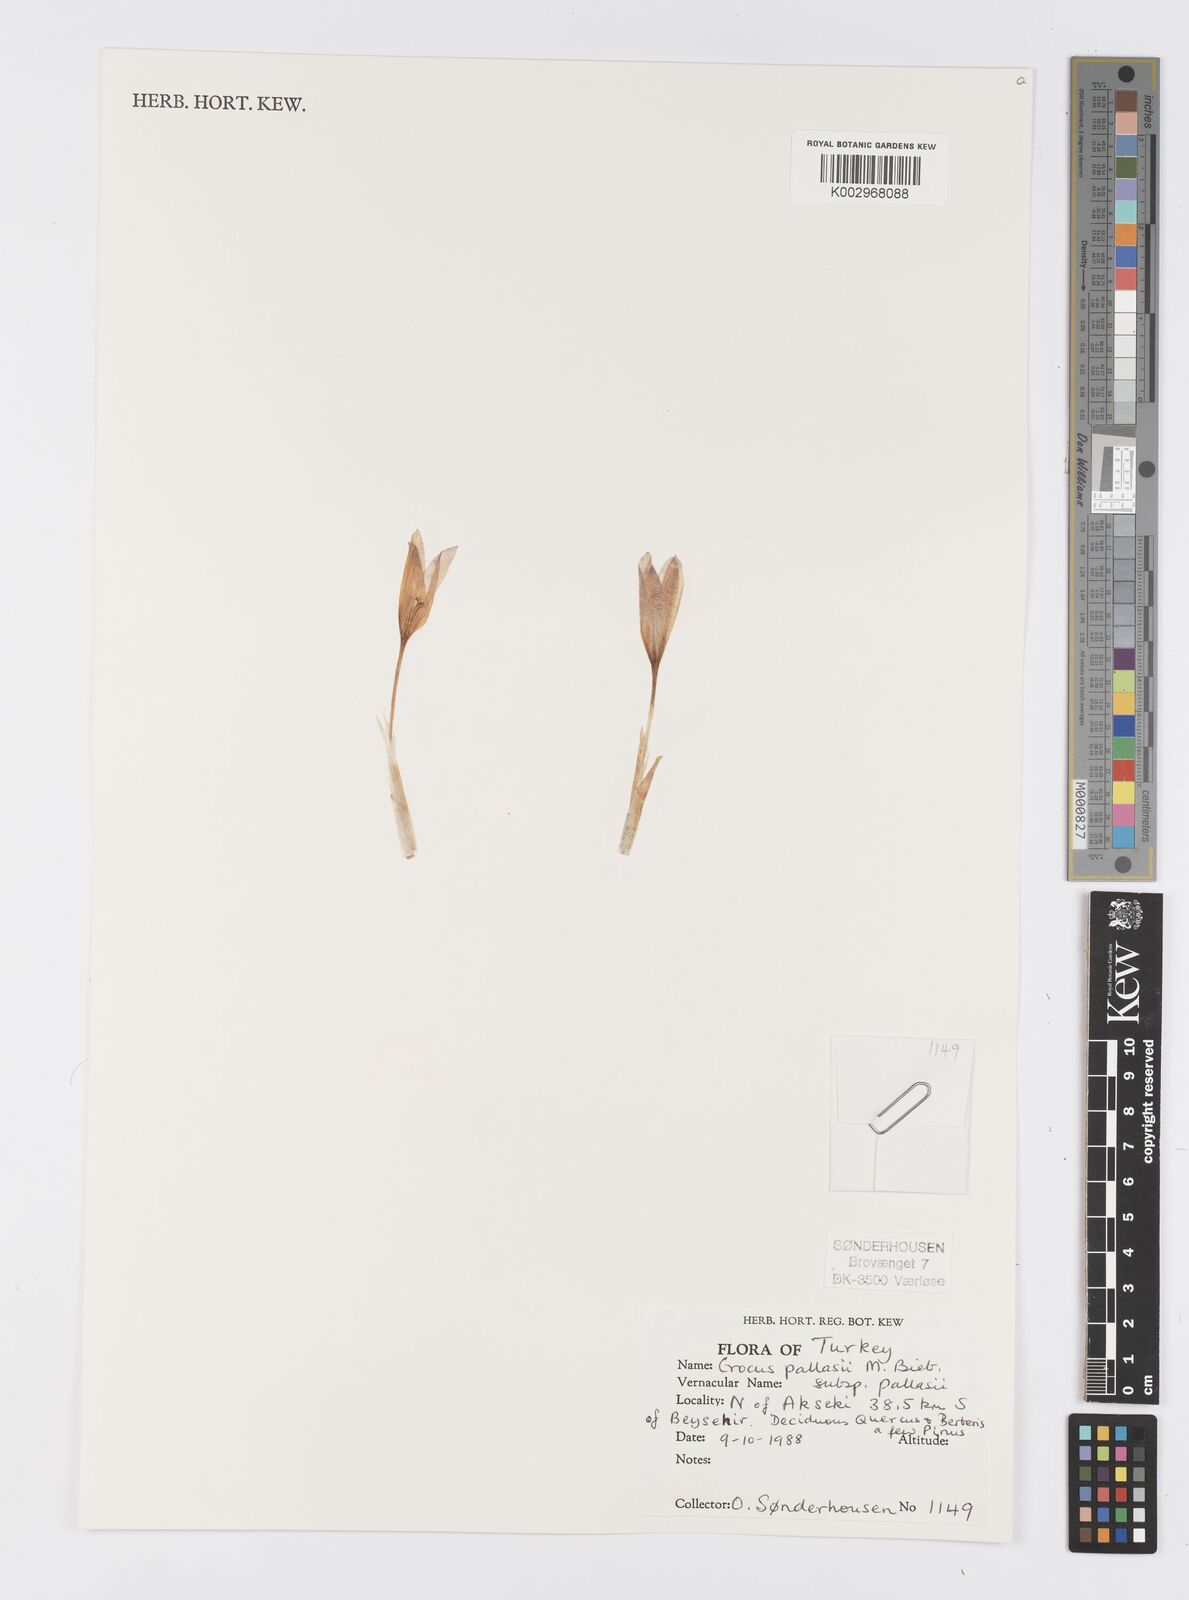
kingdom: Plantae
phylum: Tracheophyta
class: Liliopsida
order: Asparagales
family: Iridaceae
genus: Crocus
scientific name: Crocus
